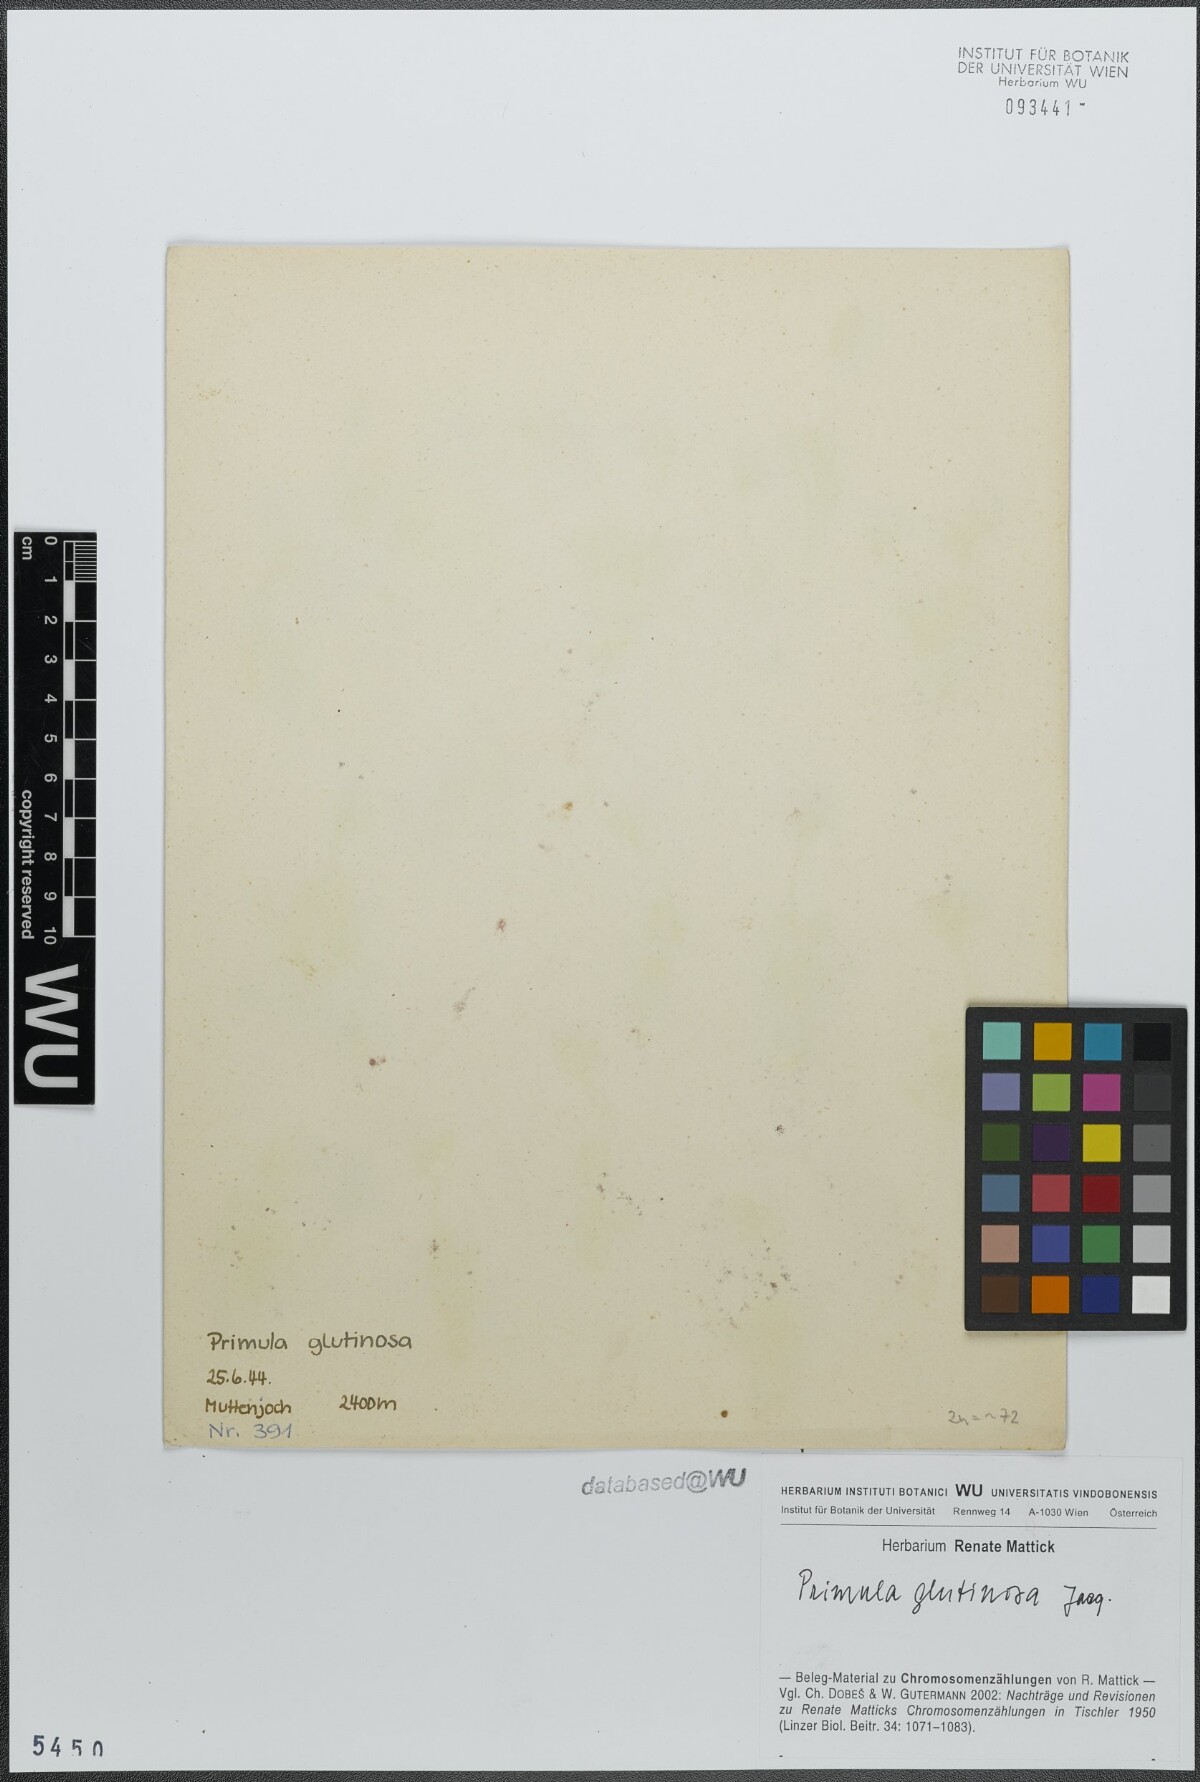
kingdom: Plantae
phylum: Tracheophyta
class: Magnoliopsida
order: Ericales
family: Primulaceae
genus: Primula
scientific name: Primula glutinosa
